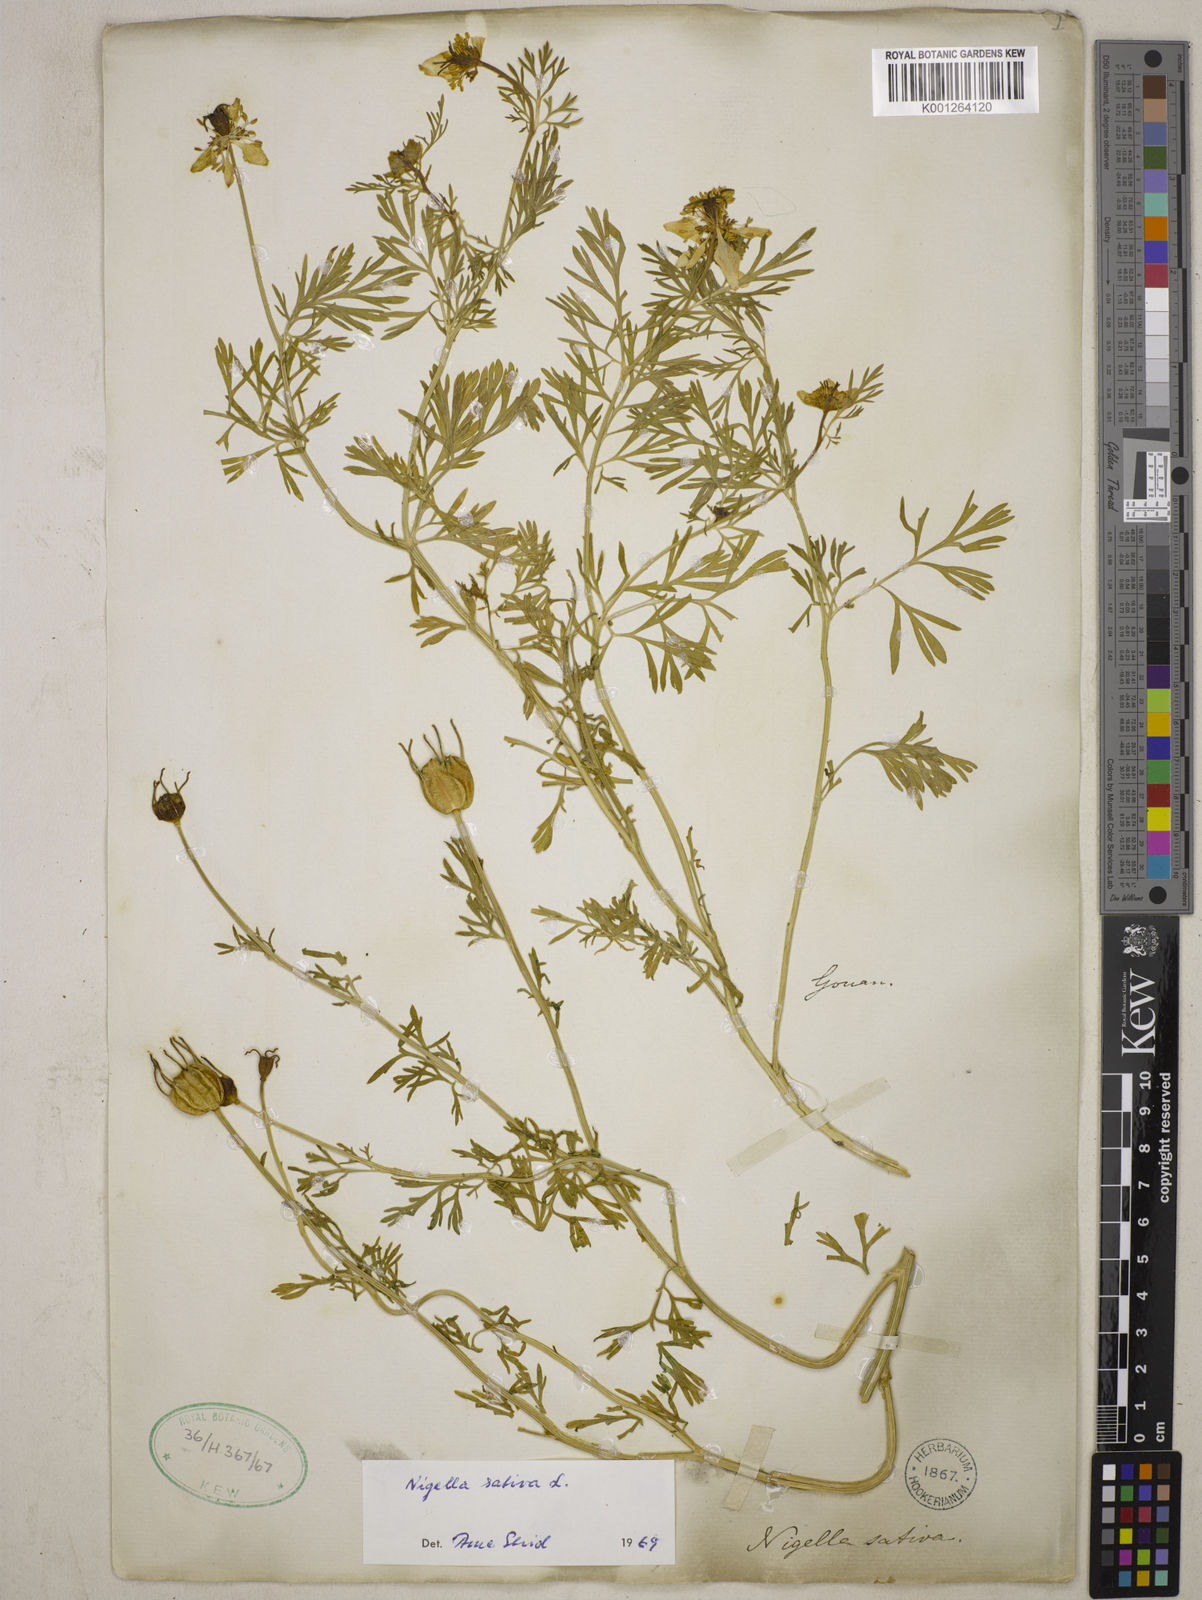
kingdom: Plantae
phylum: Tracheophyta
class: Magnoliopsida
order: Ranunculales
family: Ranunculaceae
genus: Nigella
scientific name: Nigella sativa
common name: Black-cumin
